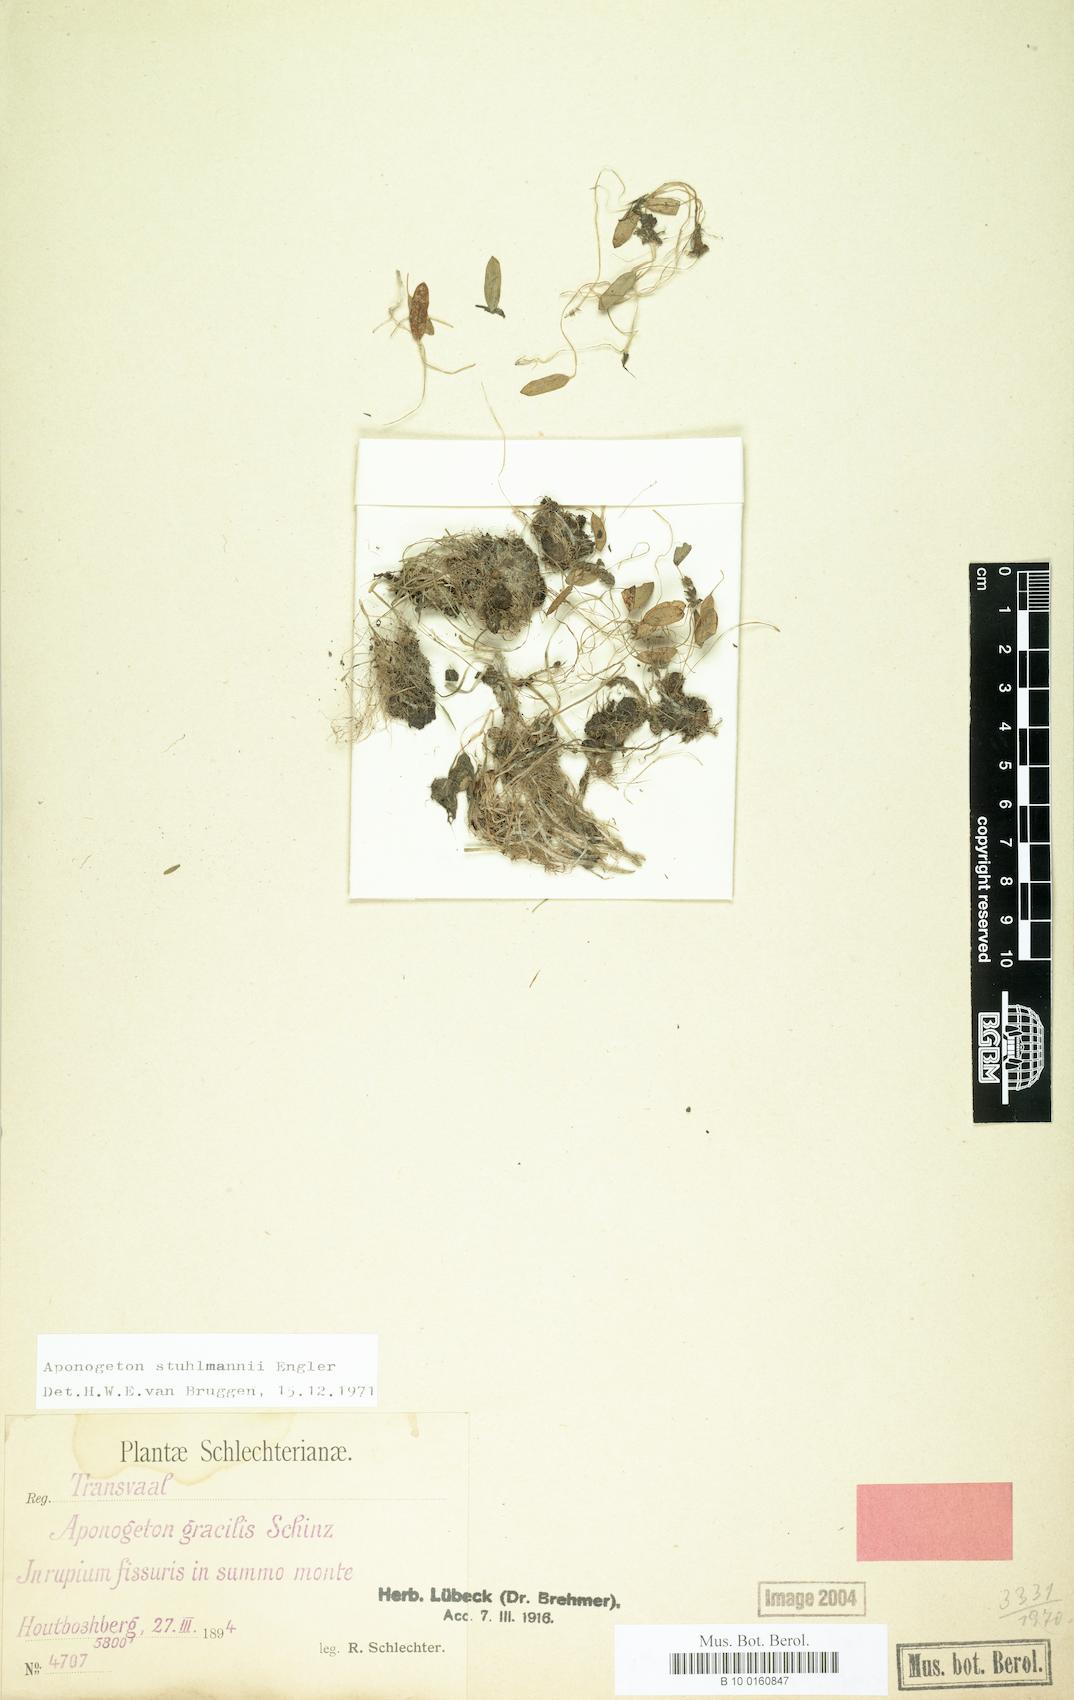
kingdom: Plantae
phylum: Tracheophyta
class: Liliopsida
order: Alismatales
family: Aponogetonaceae
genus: Aponogeton
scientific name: Aponogeton stuhlmannii
